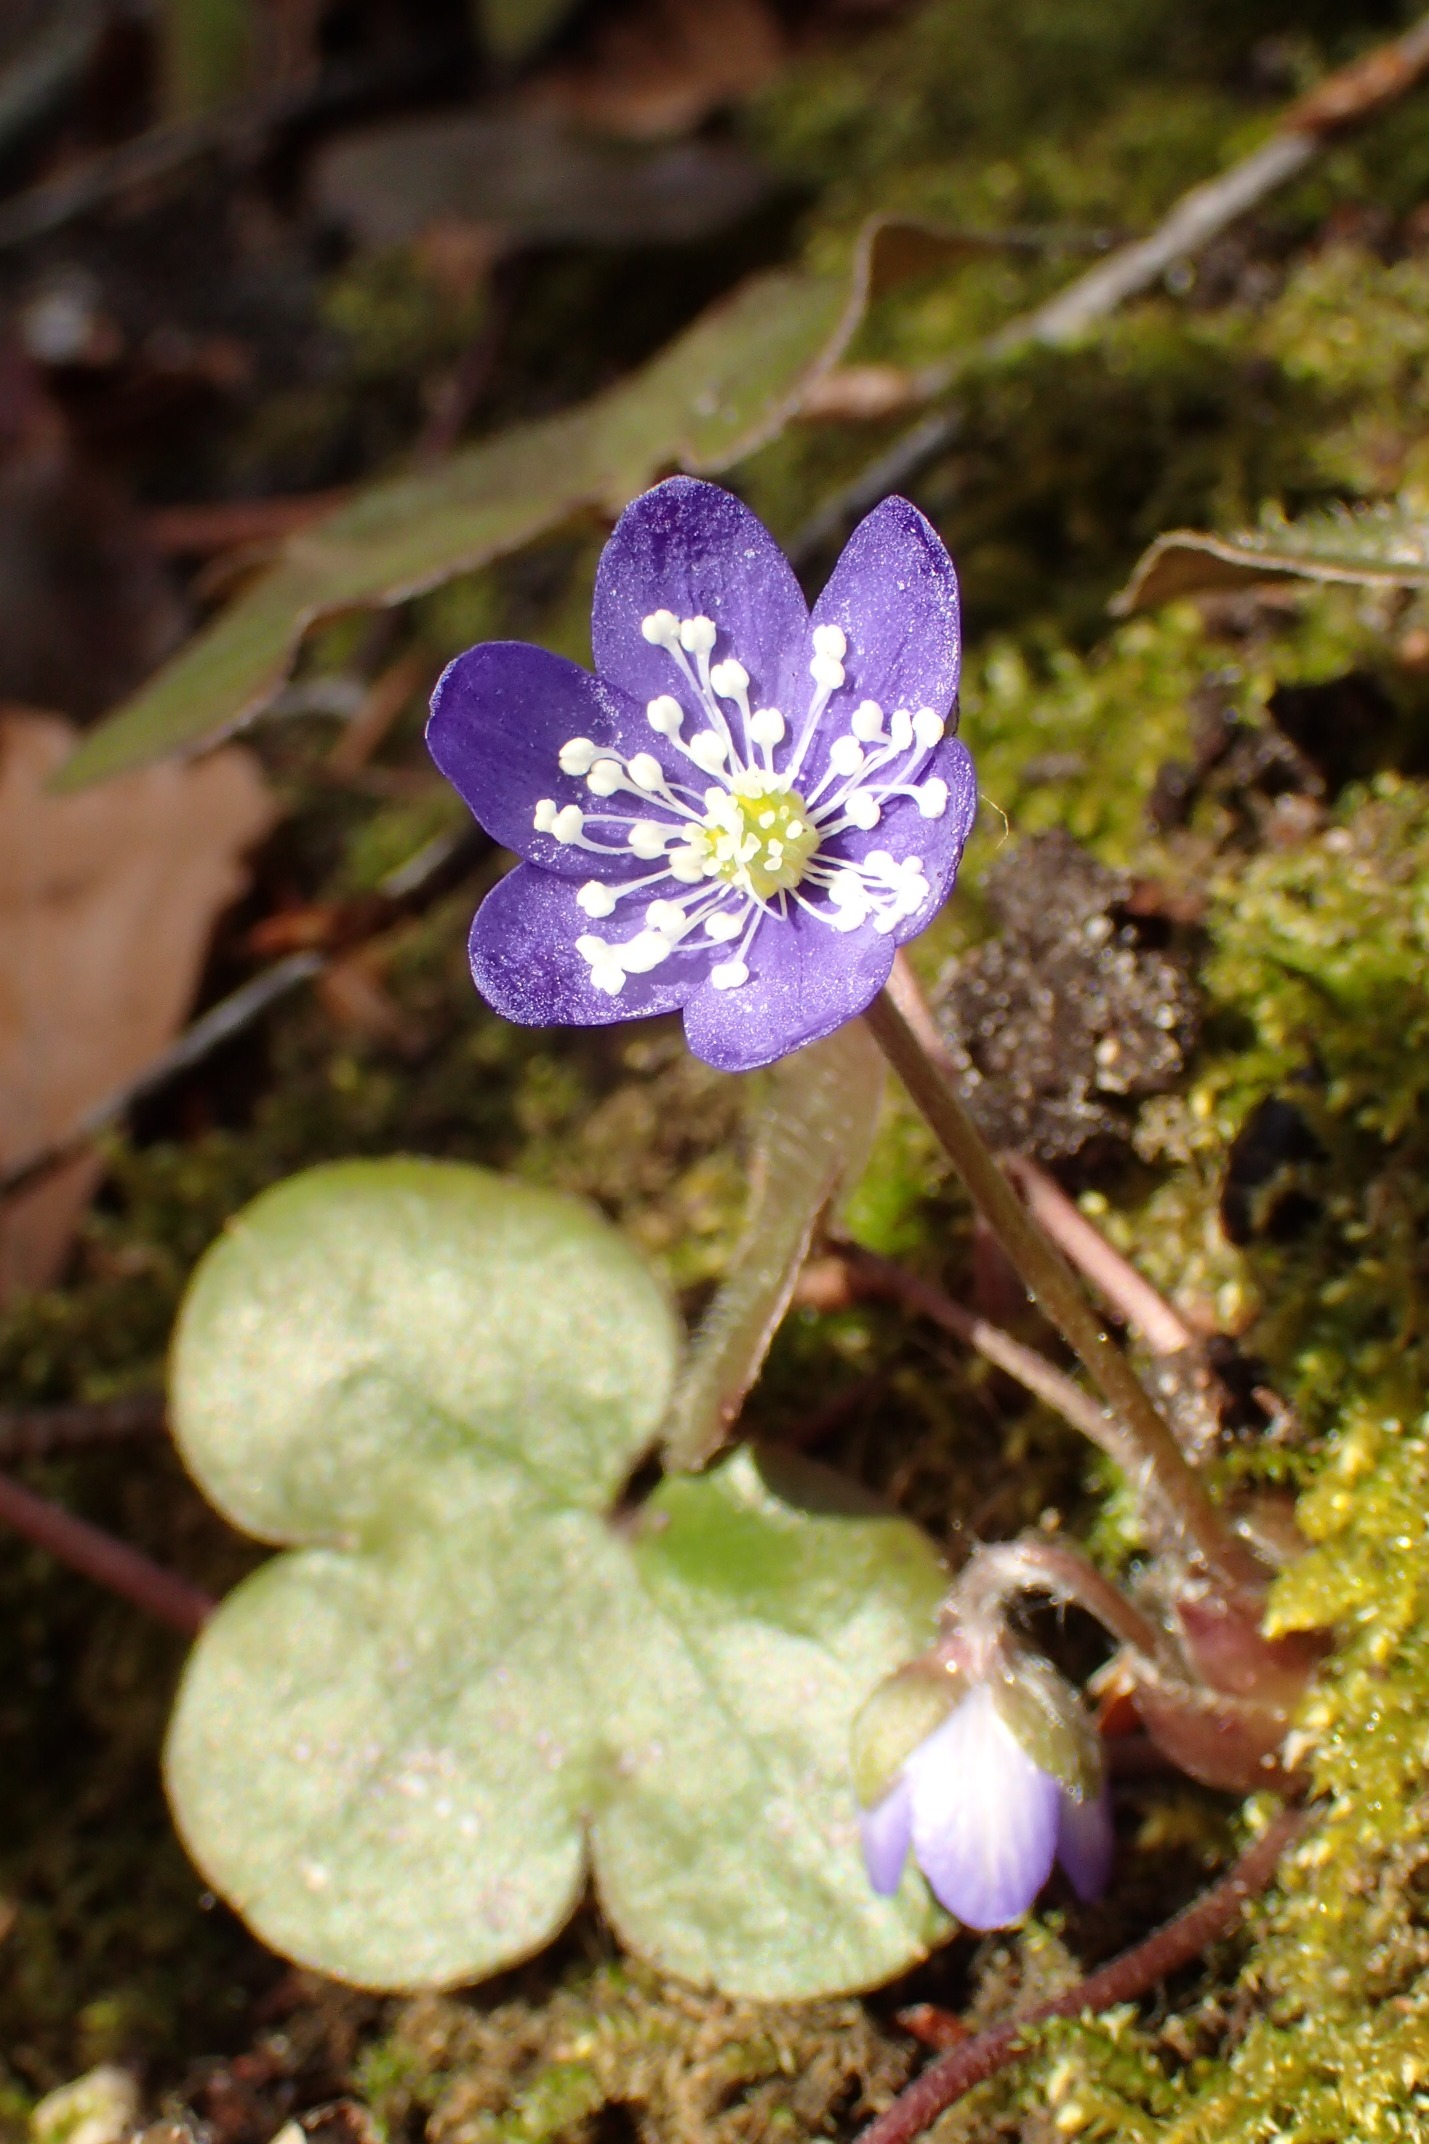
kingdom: Plantae
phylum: Tracheophyta
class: Magnoliopsida
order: Ranunculales
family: Ranunculaceae
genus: Hepatica
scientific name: Hepatica nobilis
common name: Blå anemone
